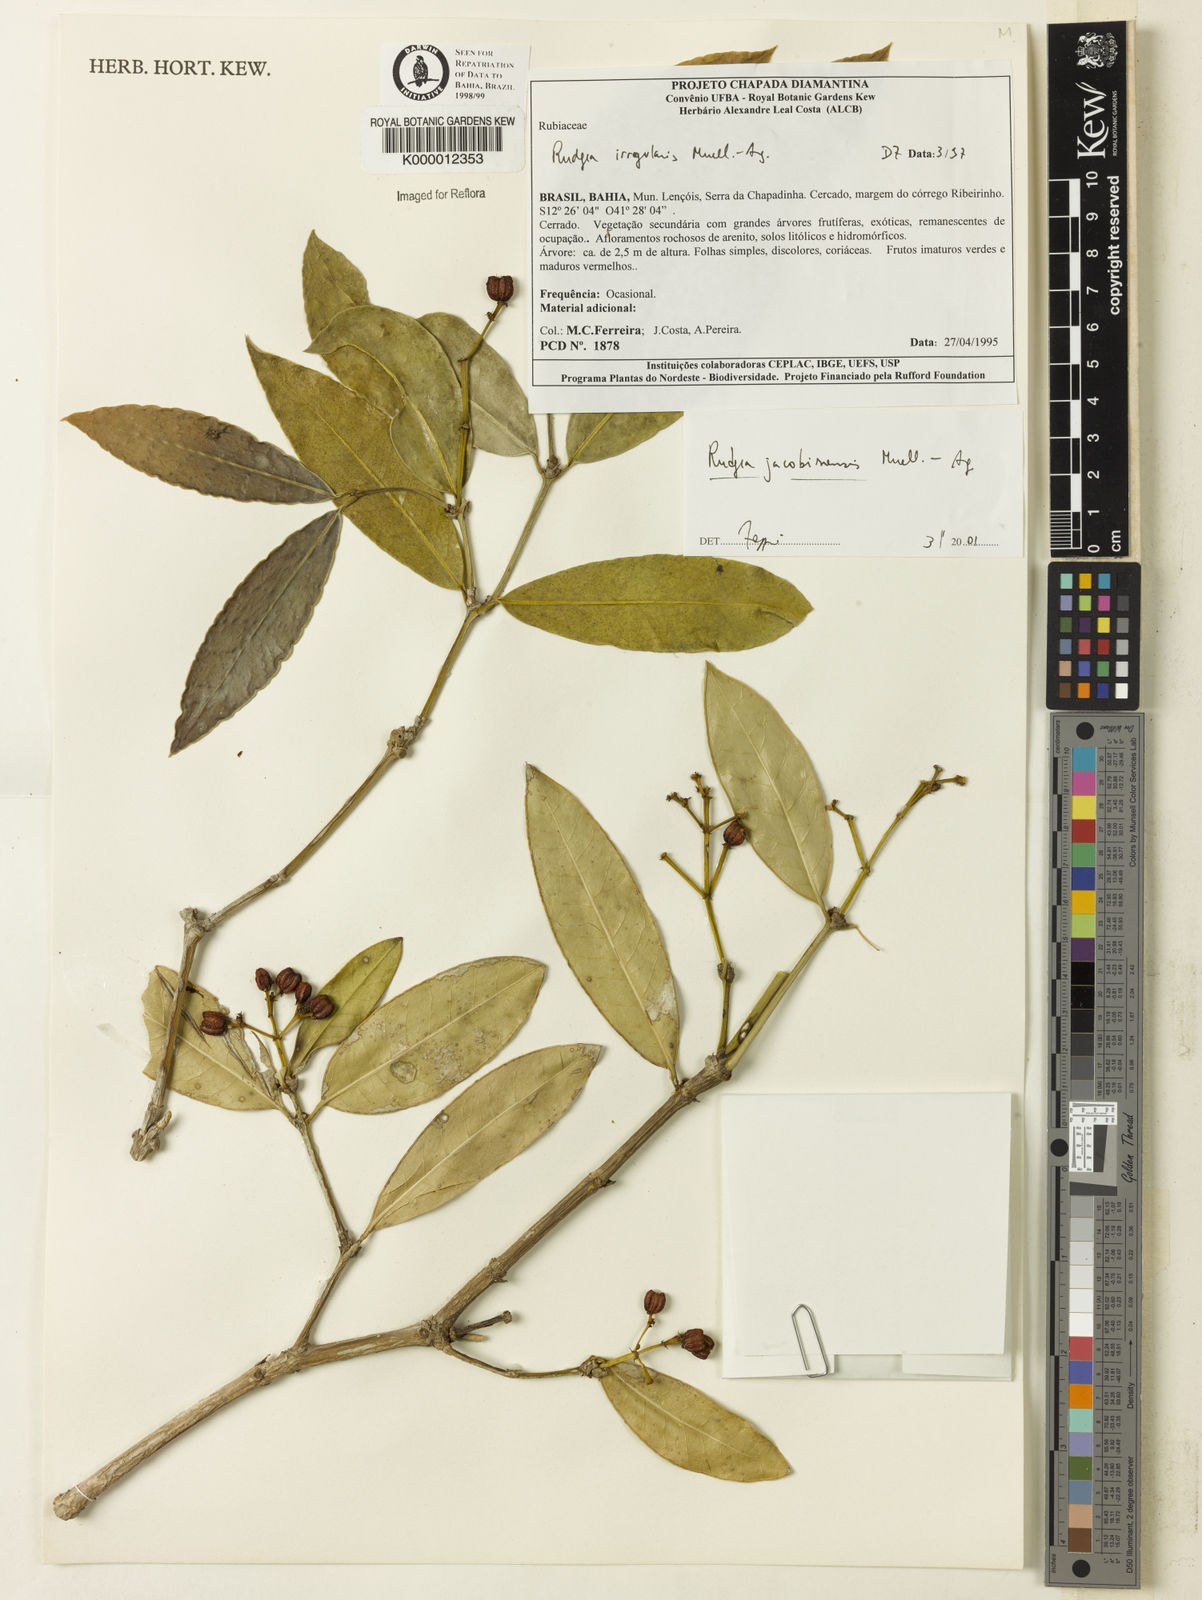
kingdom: Plantae
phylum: Tracheophyta
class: Magnoliopsida
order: Gentianales
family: Rubiaceae
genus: Rudgea
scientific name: Rudgea erioloba
